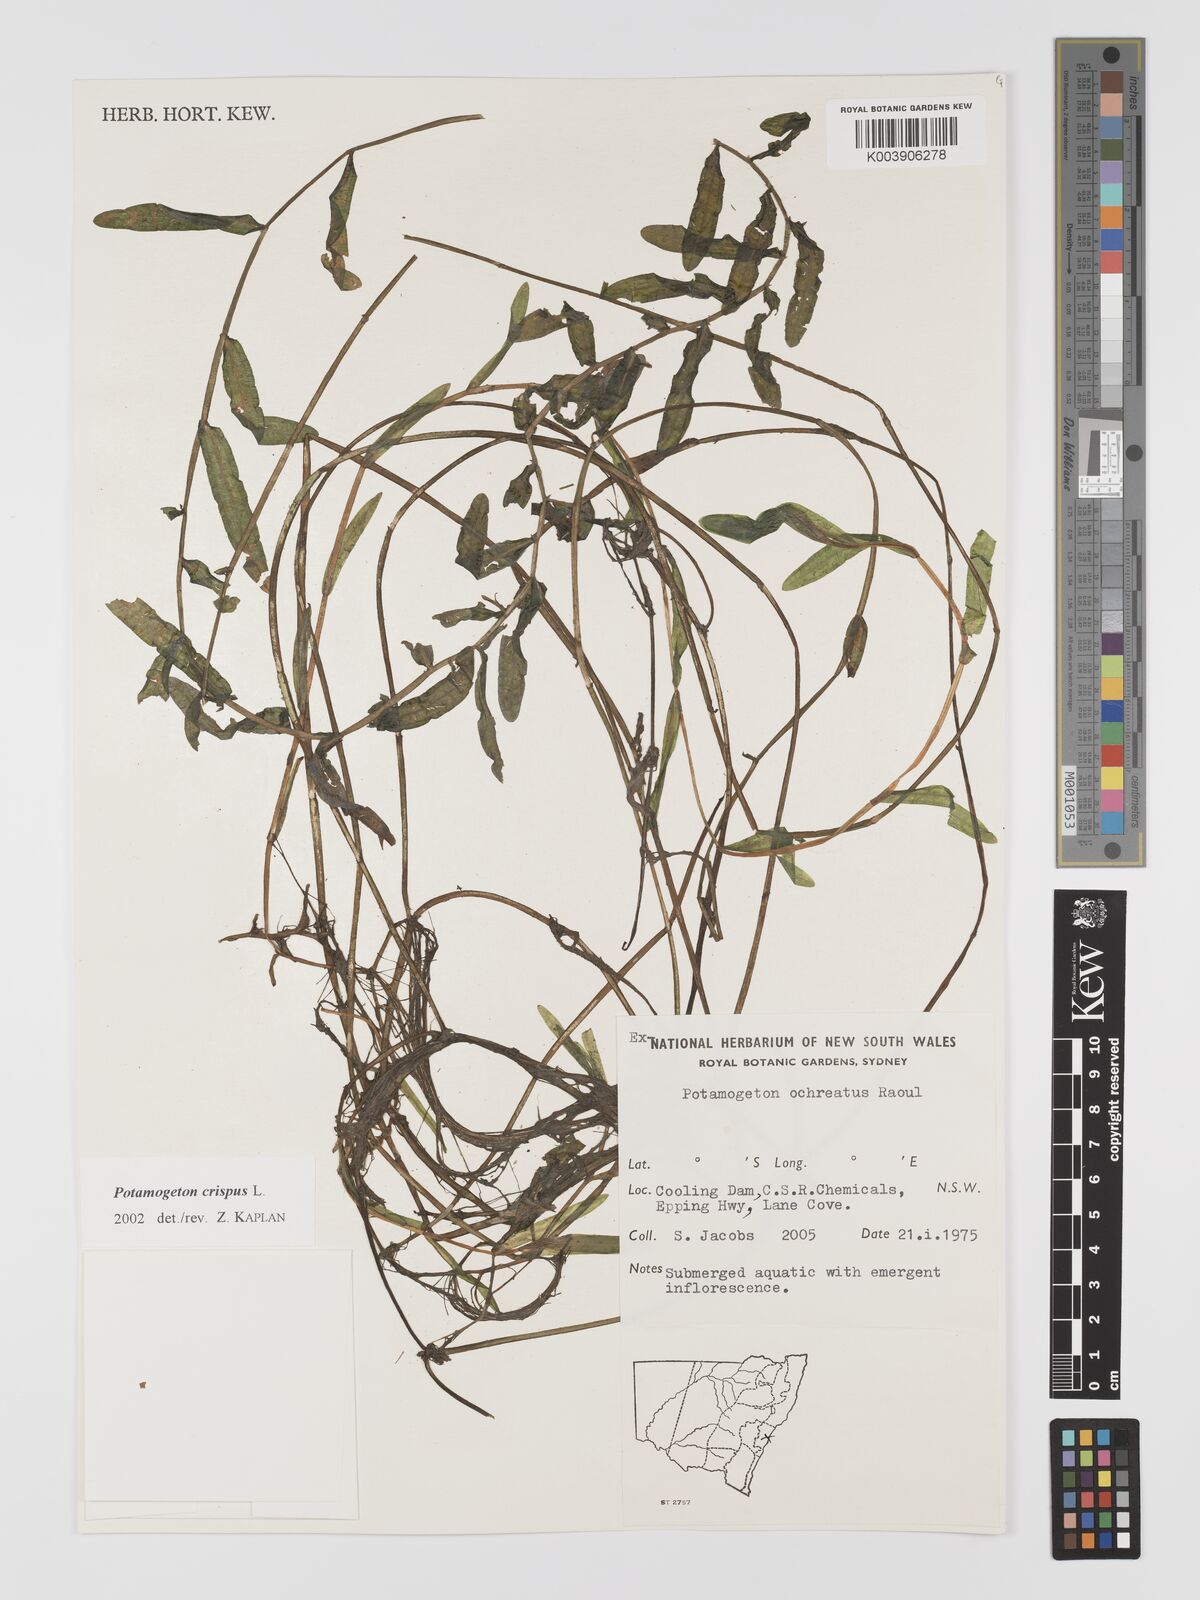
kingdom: Plantae
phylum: Tracheophyta
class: Liliopsida
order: Alismatales
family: Potamogetonaceae
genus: Potamogeton
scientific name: Potamogeton crispus
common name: Curled pondweed
